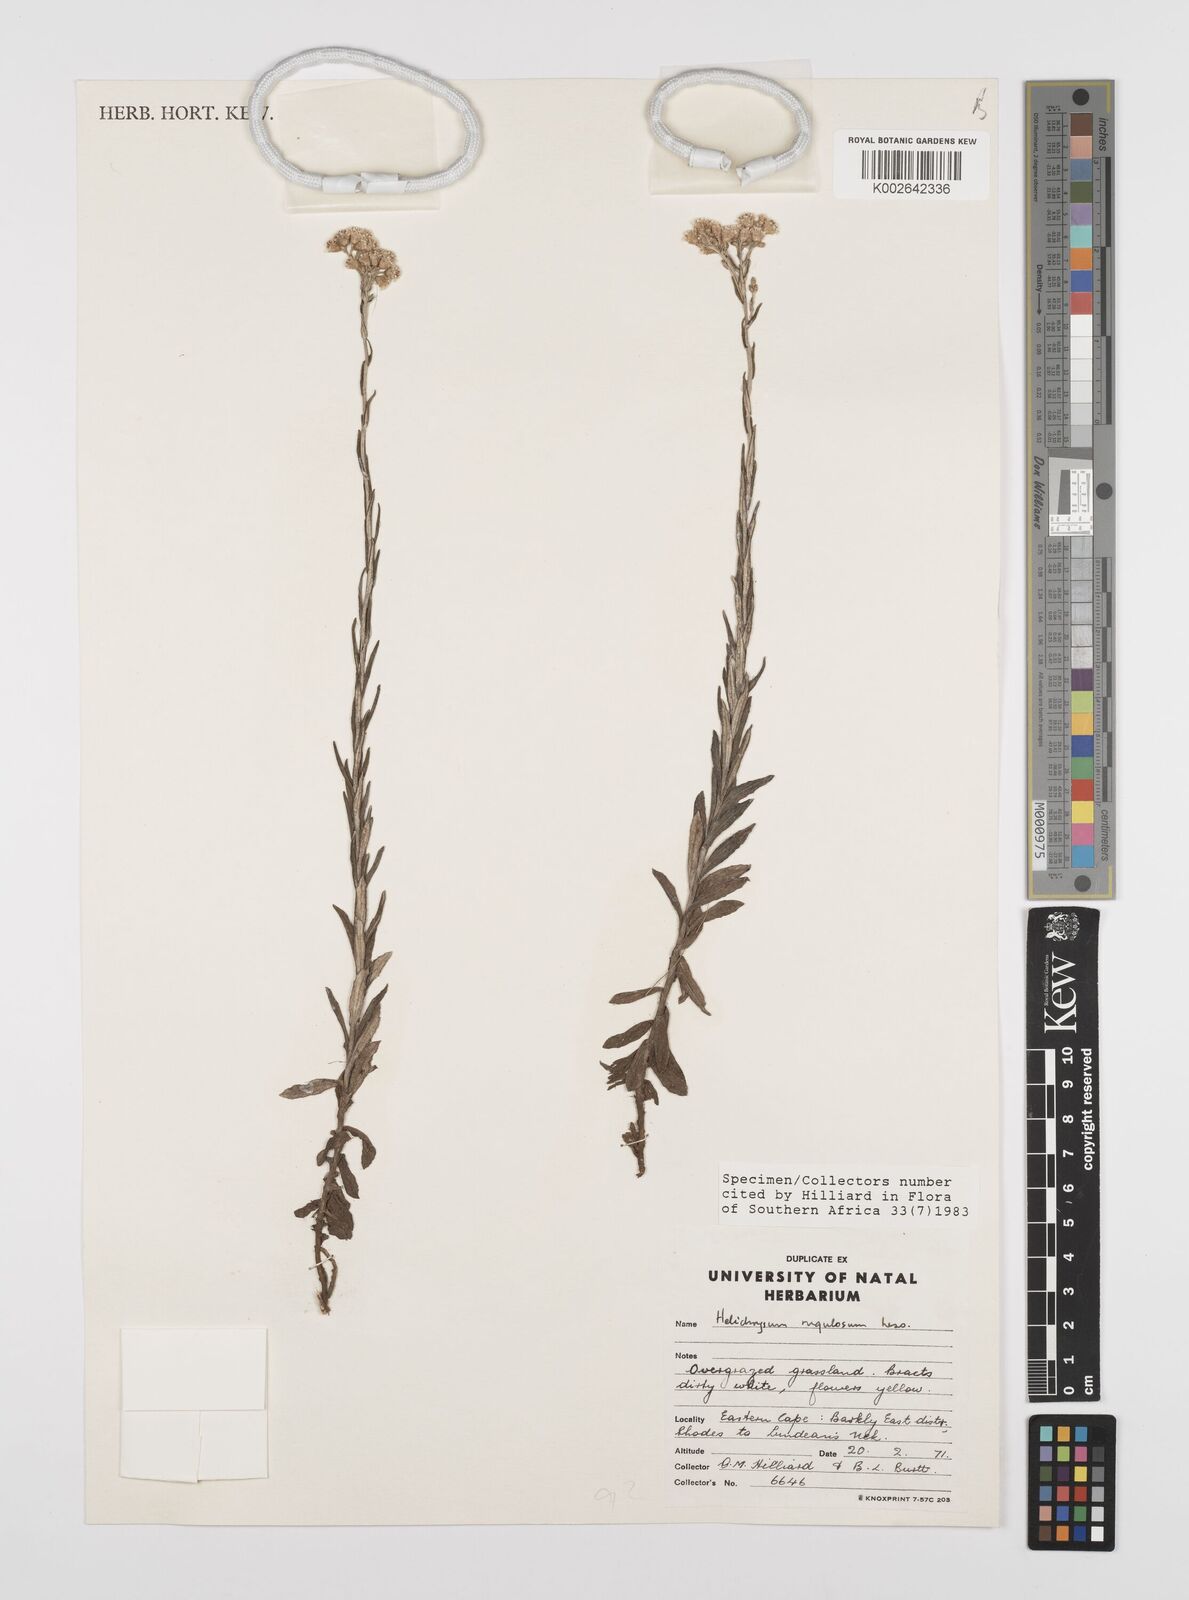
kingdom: Plantae
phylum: Tracheophyta
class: Magnoliopsida
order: Asterales
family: Asteraceae
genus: Helichrysum
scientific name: Helichrysum rugulosum
